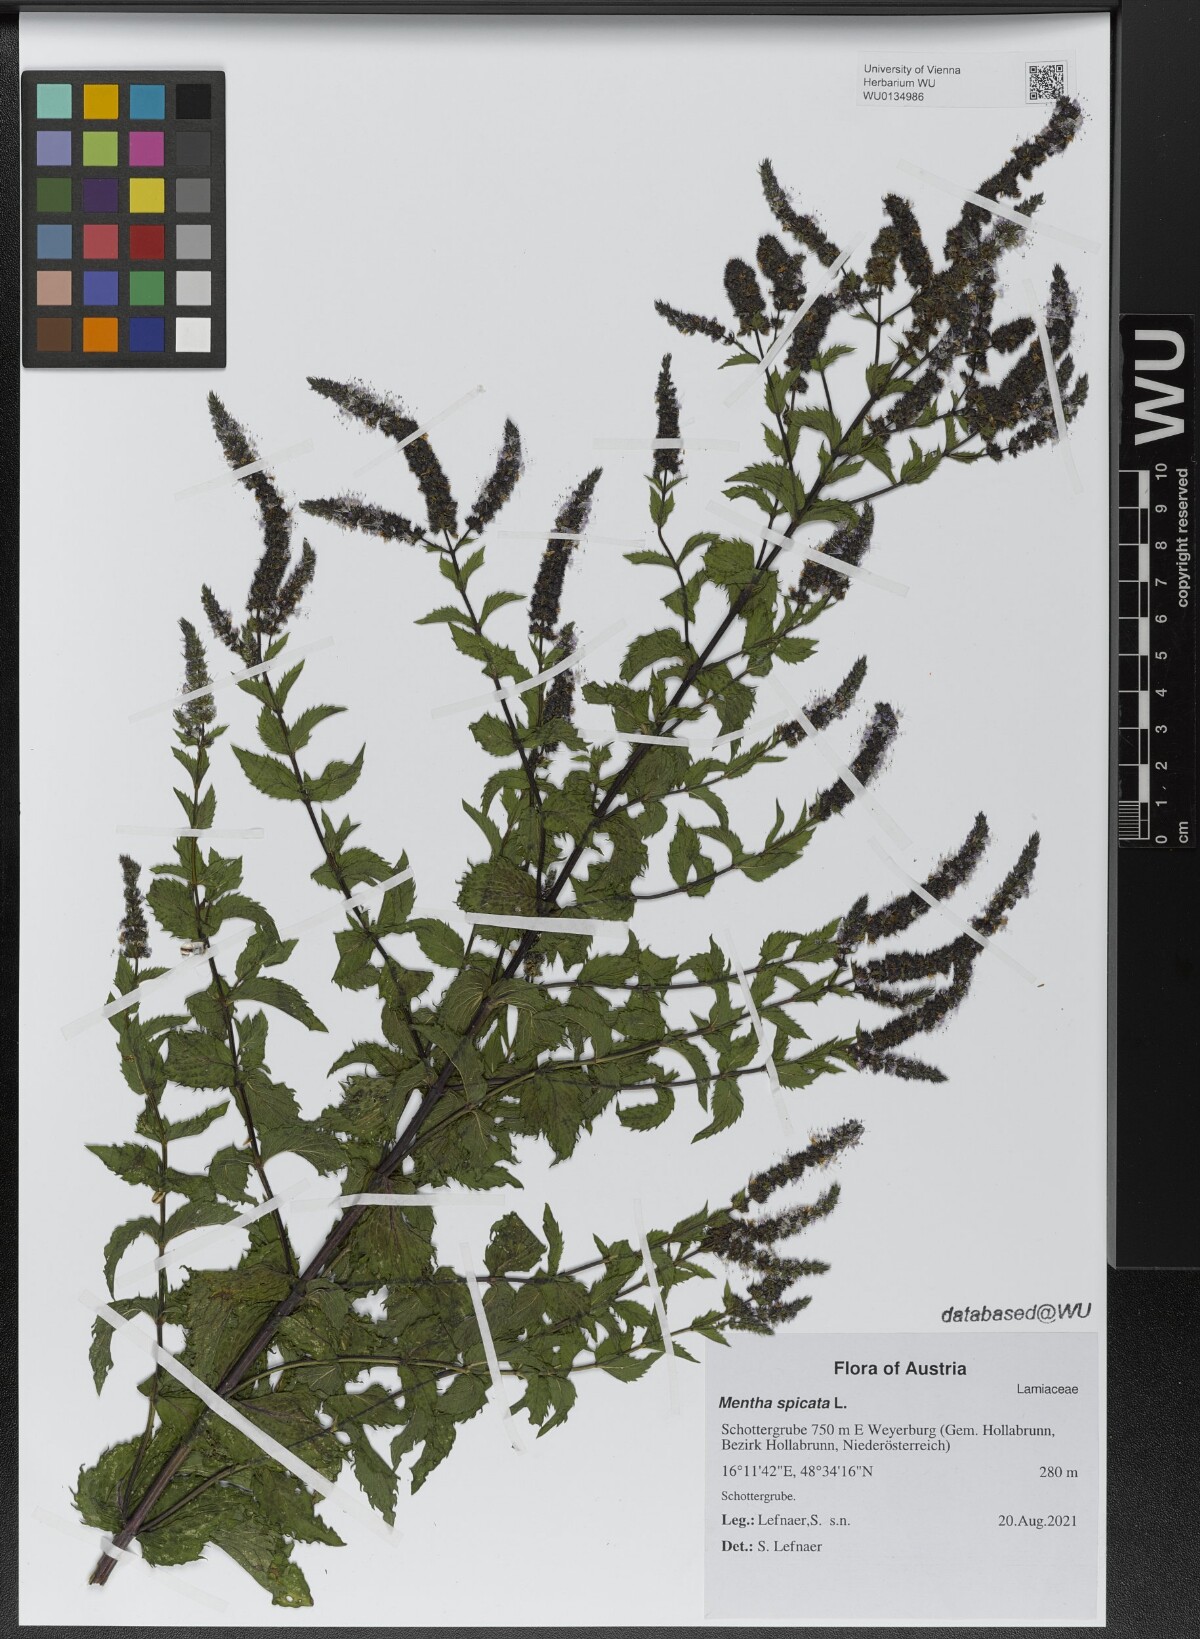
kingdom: Plantae
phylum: Tracheophyta
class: Magnoliopsida
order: Lamiales
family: Lamiaceae
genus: Mentha
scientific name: Mentha spicata
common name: Spearmint
